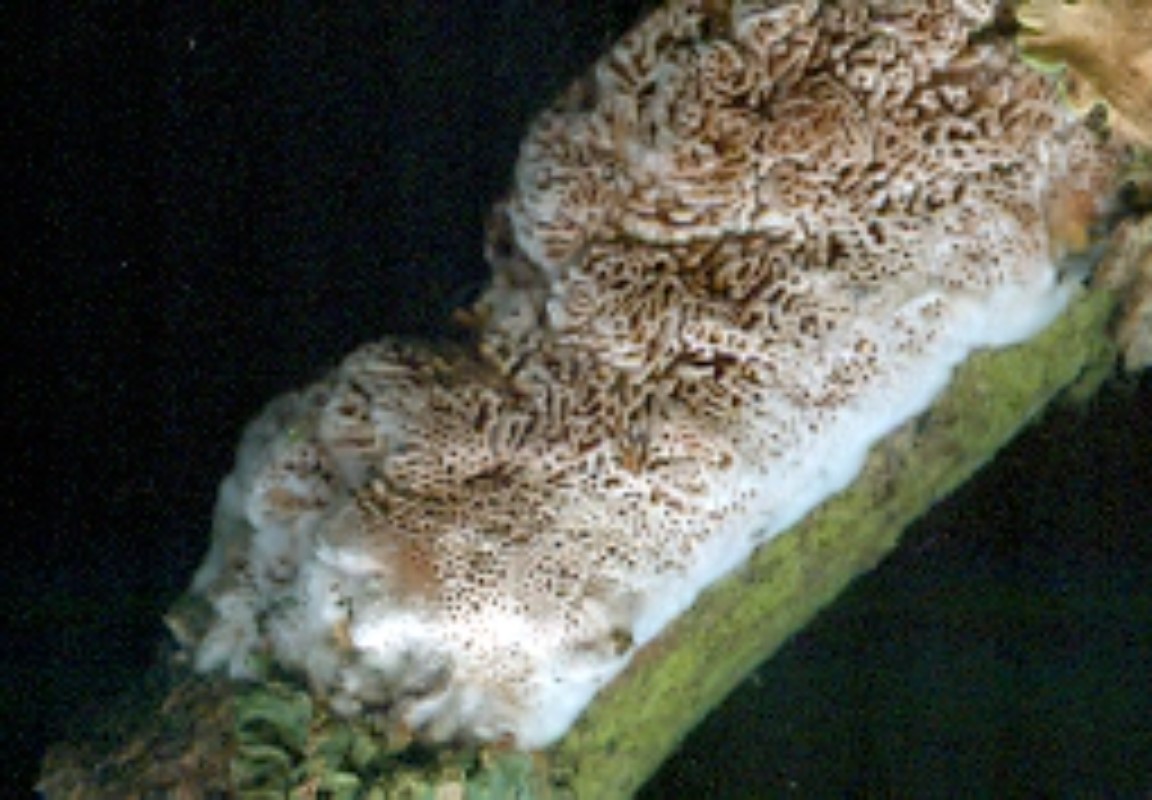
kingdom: Fungi
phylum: Basidiomycota
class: Agaricomycetes
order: Polyporales
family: Irpicaceae
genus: Resiniporus
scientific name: Resiniporus resinascens
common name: trist pastelporesvamp
